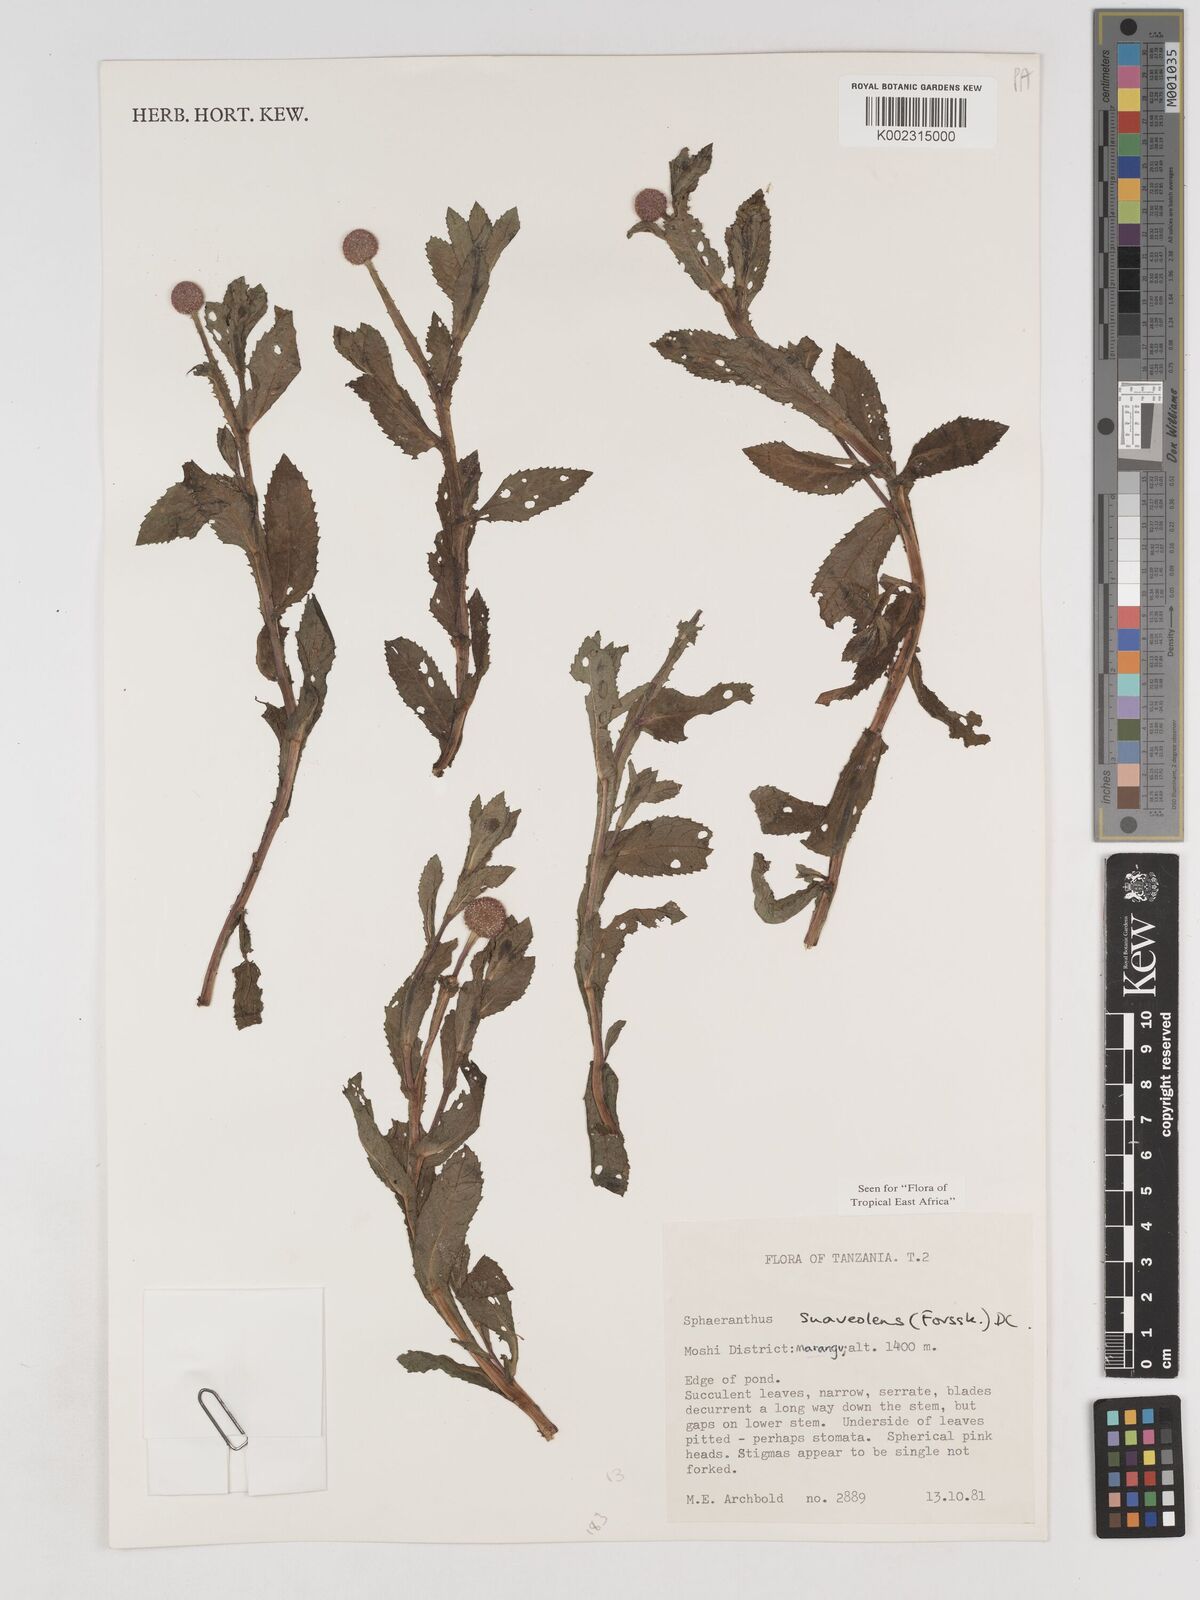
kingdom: Plantae
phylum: Tracheophyta
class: Magnoliopsida
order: Asterales
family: Asteraceae
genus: Sphaeranthus
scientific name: Sphaeranthus suaveolens
